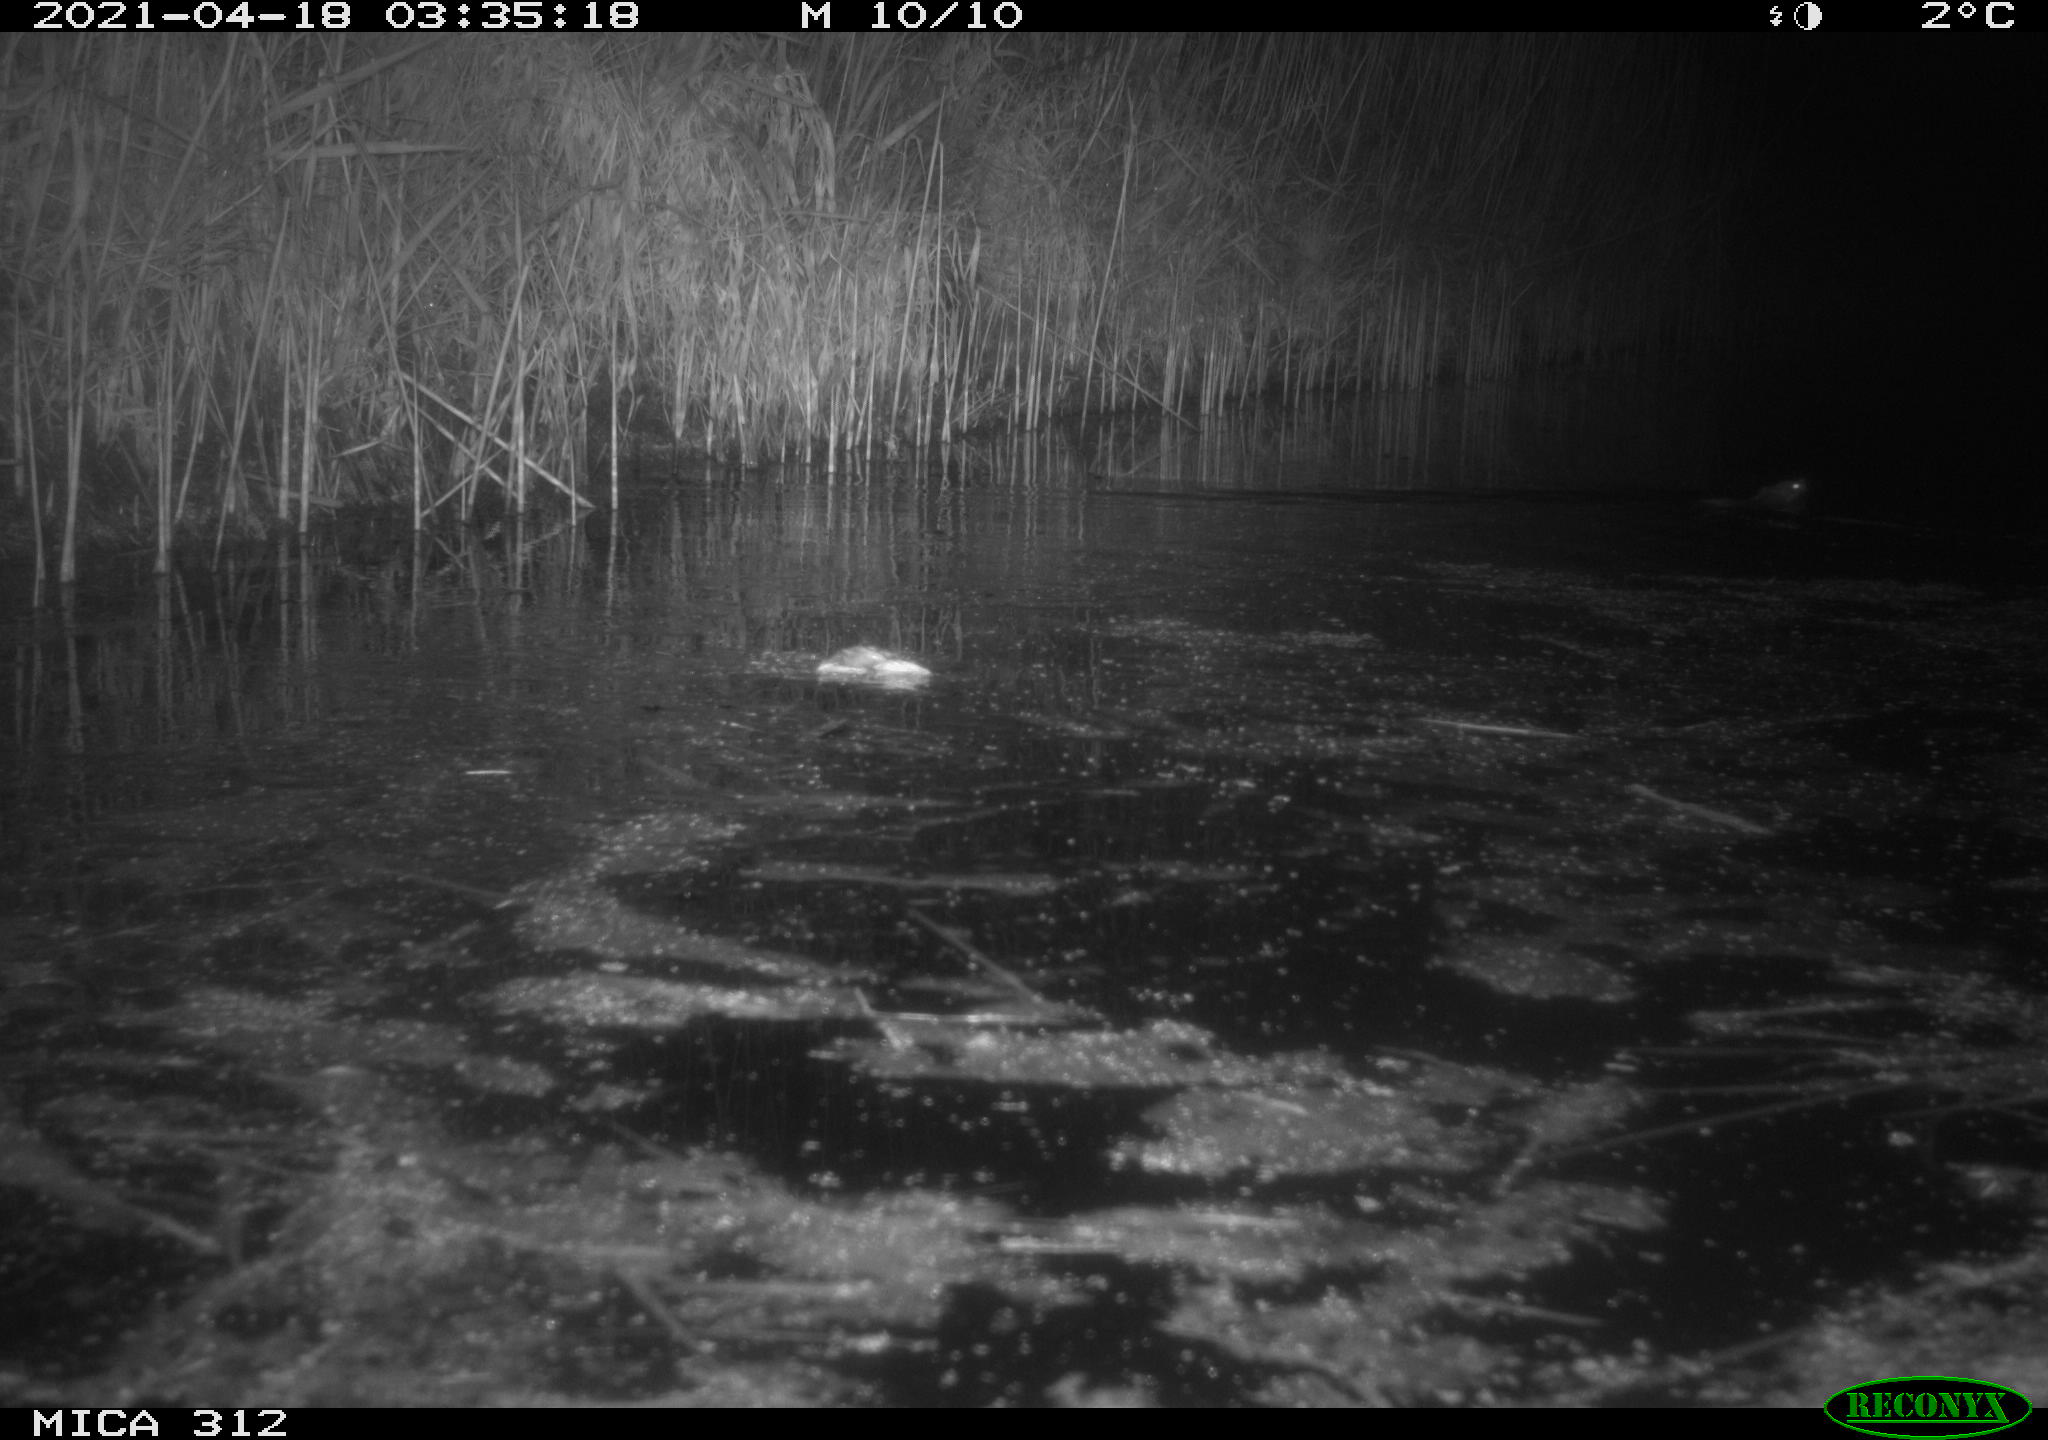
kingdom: Animalia
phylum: Chordata
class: Mammalia
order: Rodentia
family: Muridae
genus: Rattus
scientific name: Rattus norvegicus
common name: Brown rat
